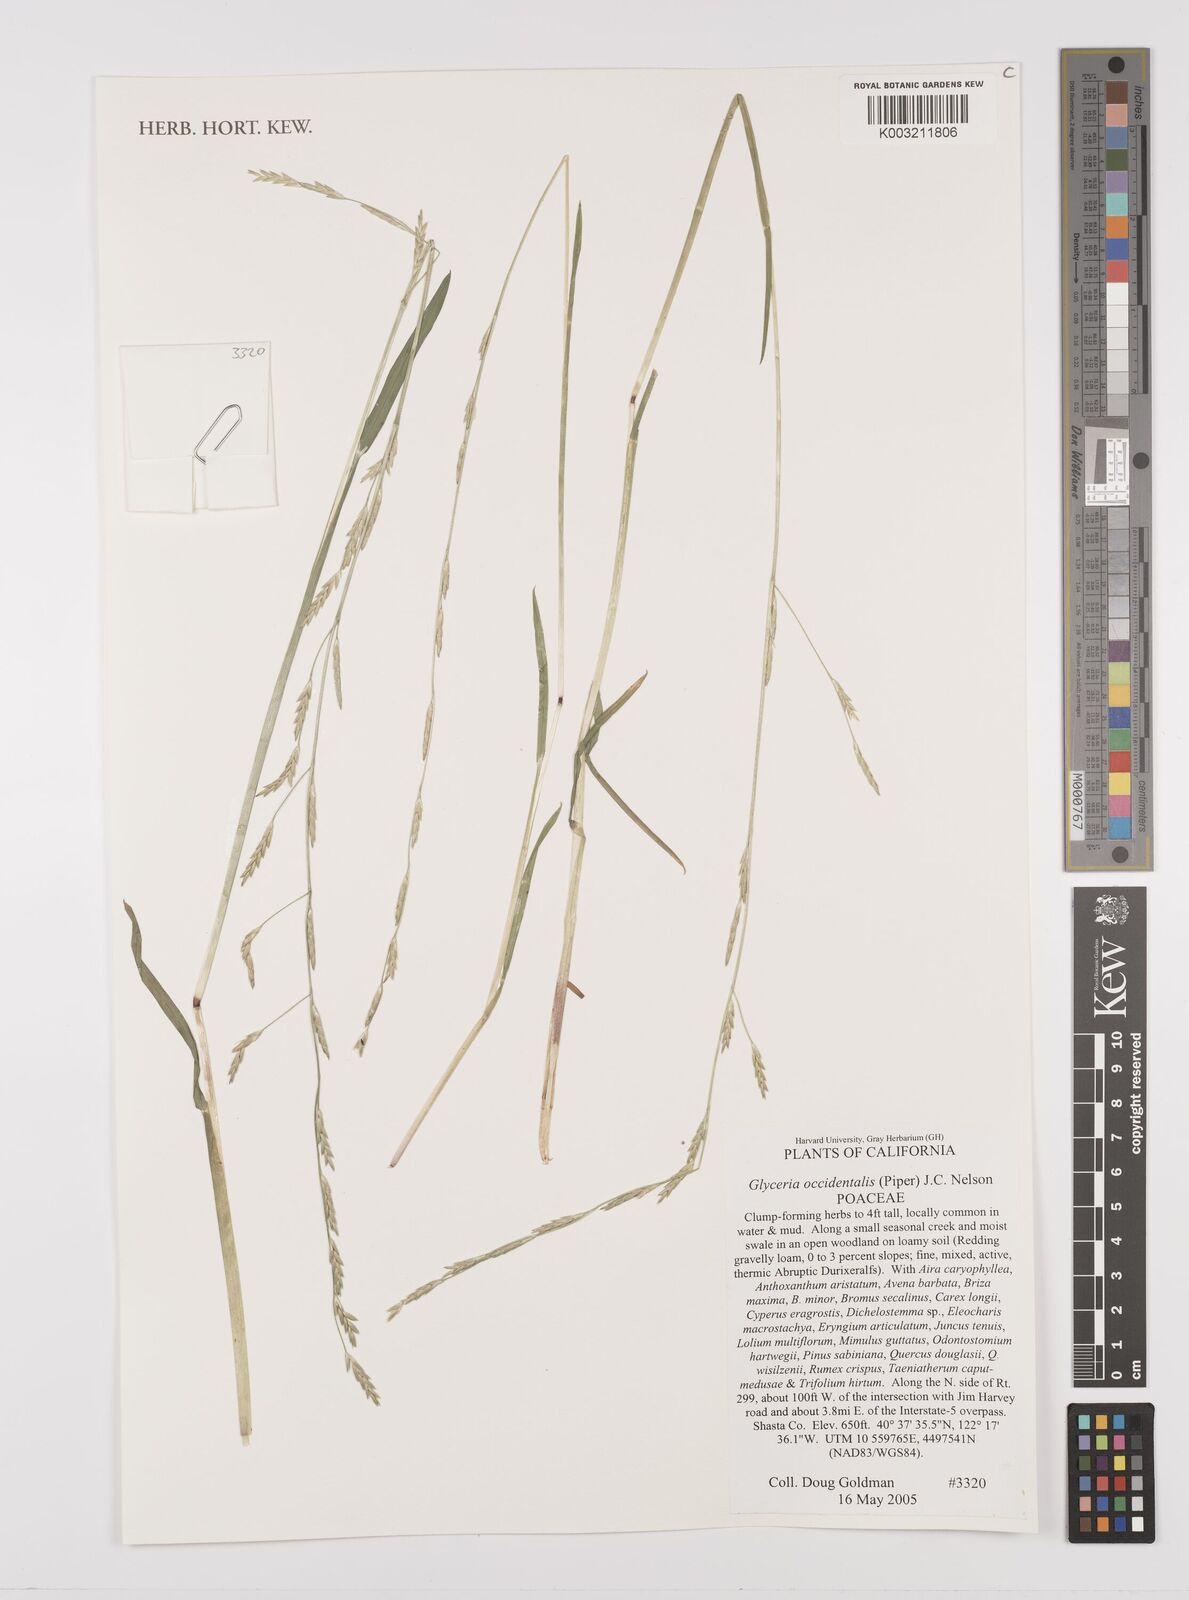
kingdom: Plantae
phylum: Tracheophyta
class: Liliopsida
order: Poales
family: Poaceae
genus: Glyceria
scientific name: Glyceria occidentalis
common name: Western manna grass
